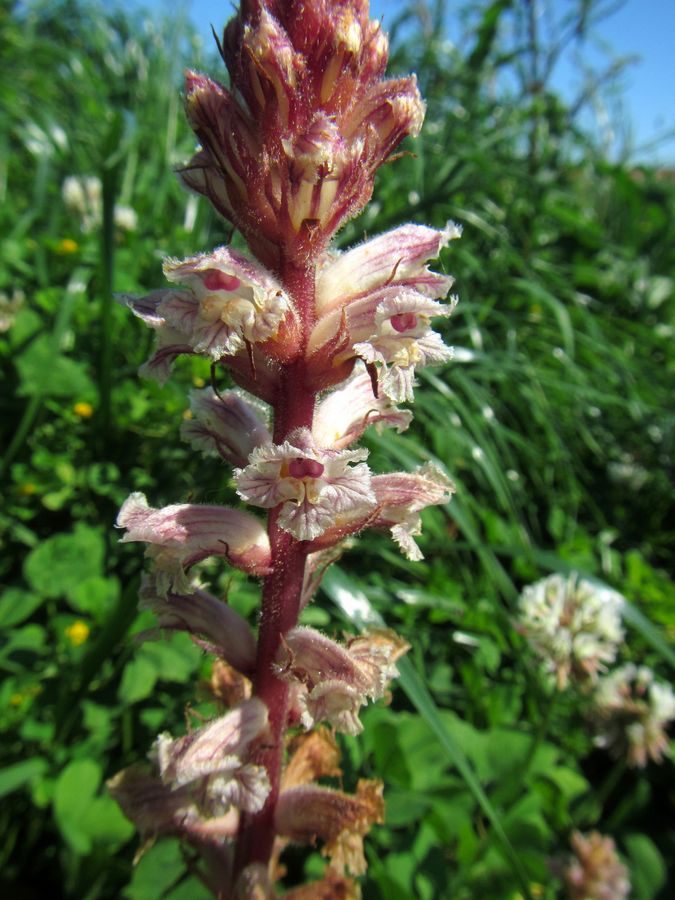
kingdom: Plantae
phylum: Tracheophyta
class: Magnoliopsida
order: Lamiales
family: Orobanchaceae
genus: Orobanche
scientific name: Orobanche
